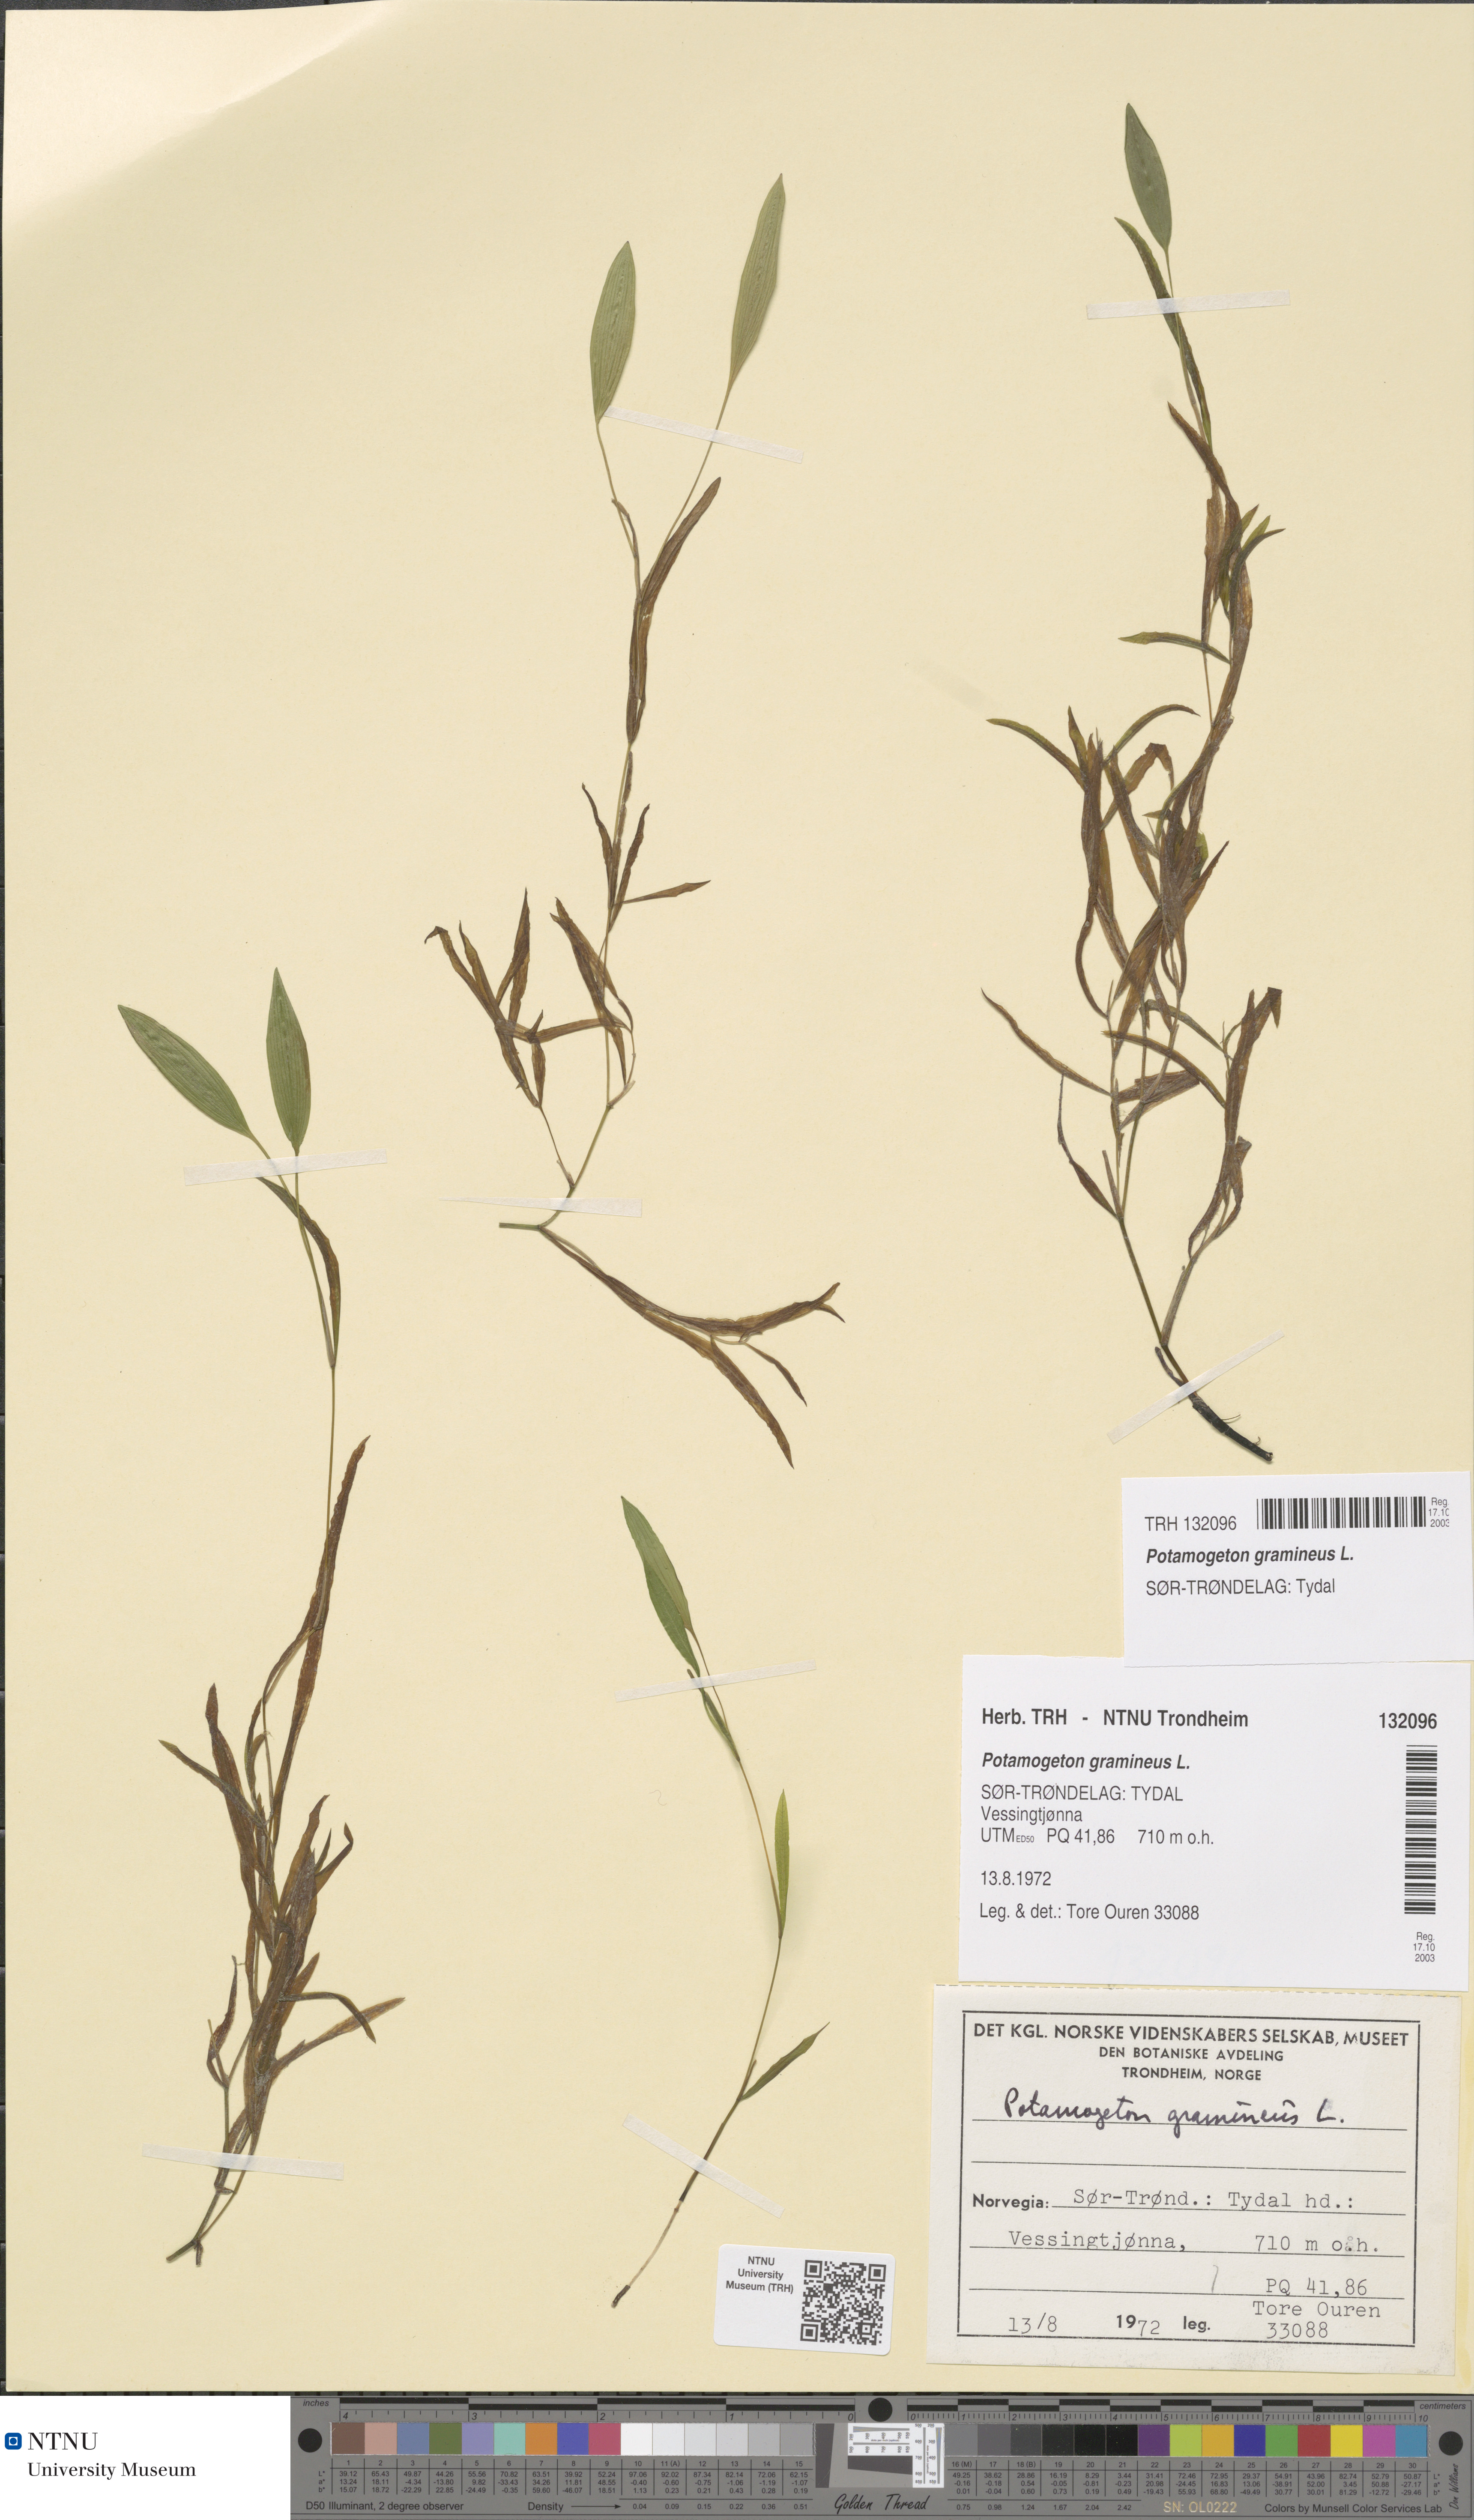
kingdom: Plantae
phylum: Tracheophyta
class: Liliopsida
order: Alismatales
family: Potamogetonaceae
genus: Potamogeton
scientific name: Potamogeton gramineus
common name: Various-leaved pondweed
